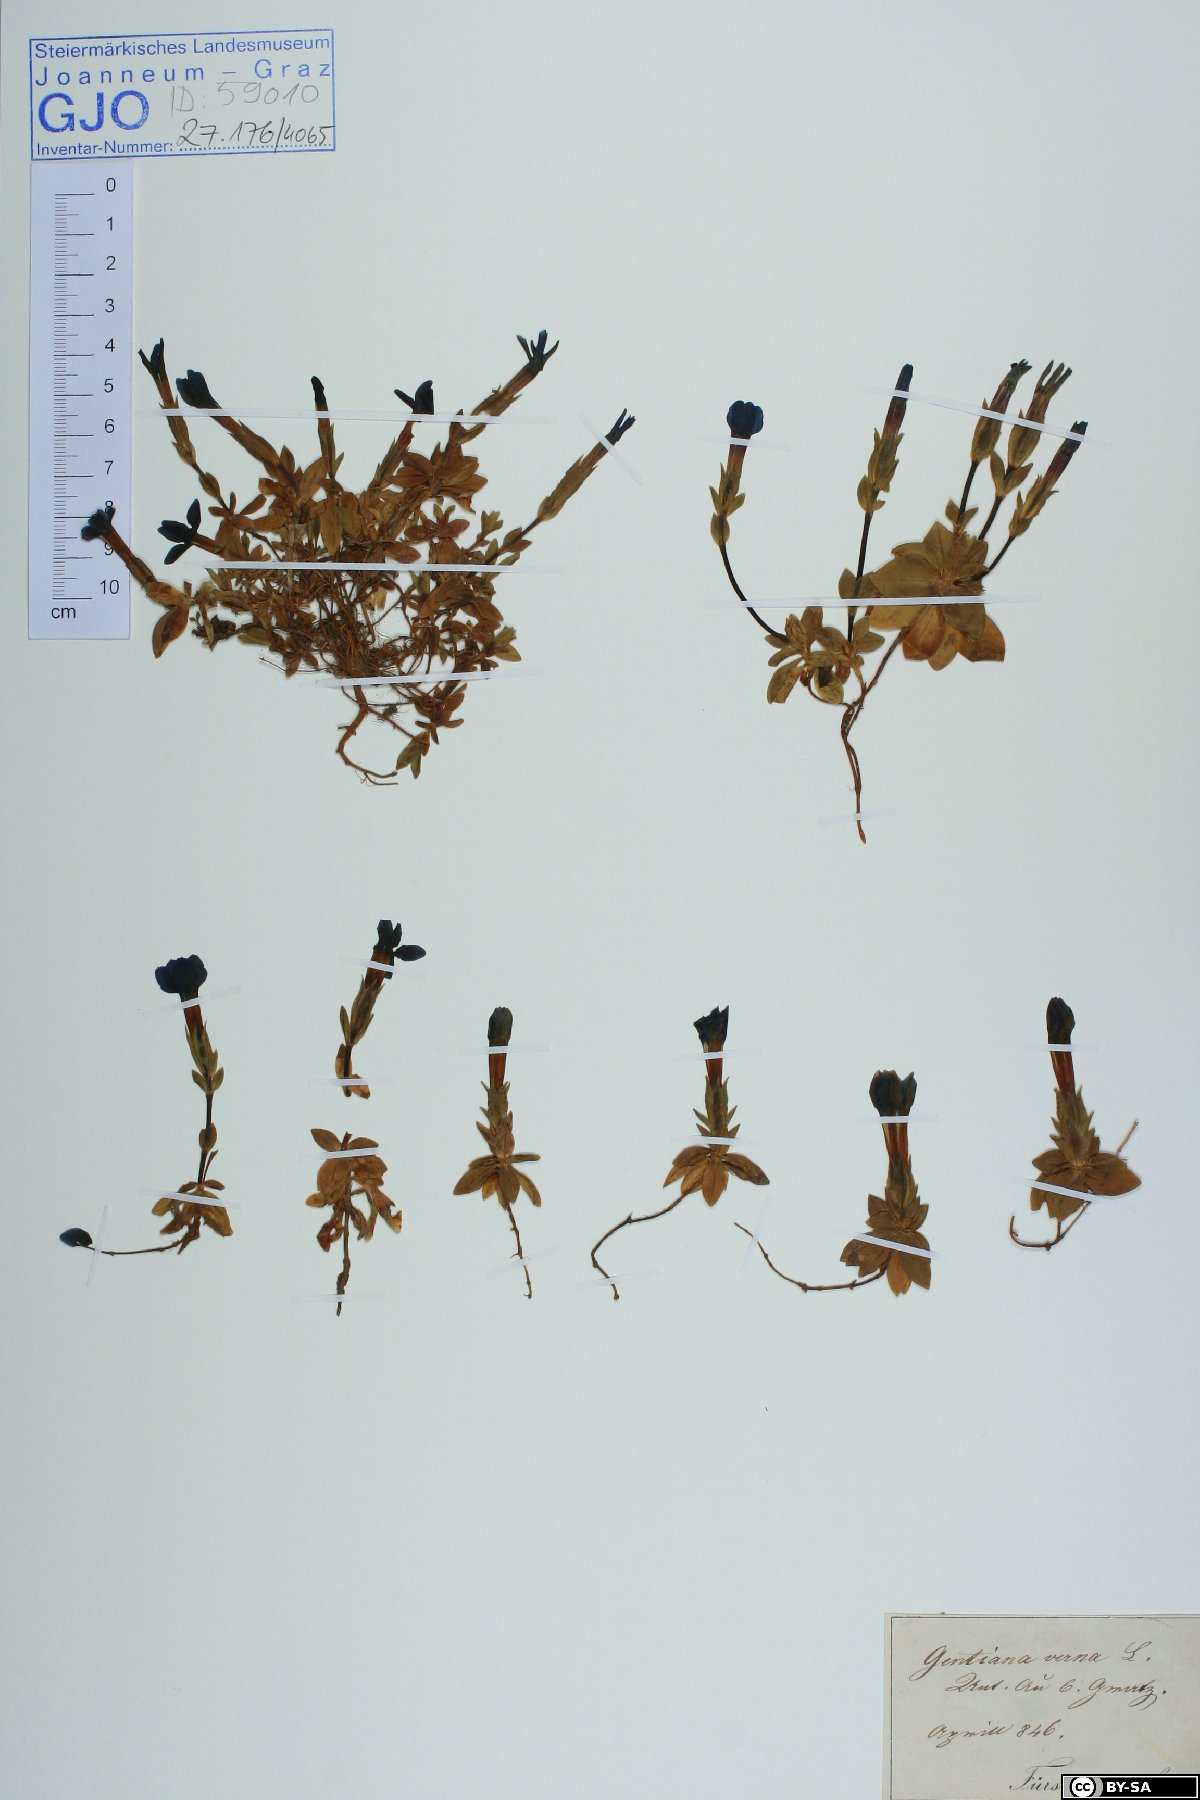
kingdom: Plantae
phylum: Tracheophyta
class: Magnoliopsida
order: Gentianales
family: Gentianaceae
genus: Gentiana
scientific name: Gentiana verna
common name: Spring gentian
